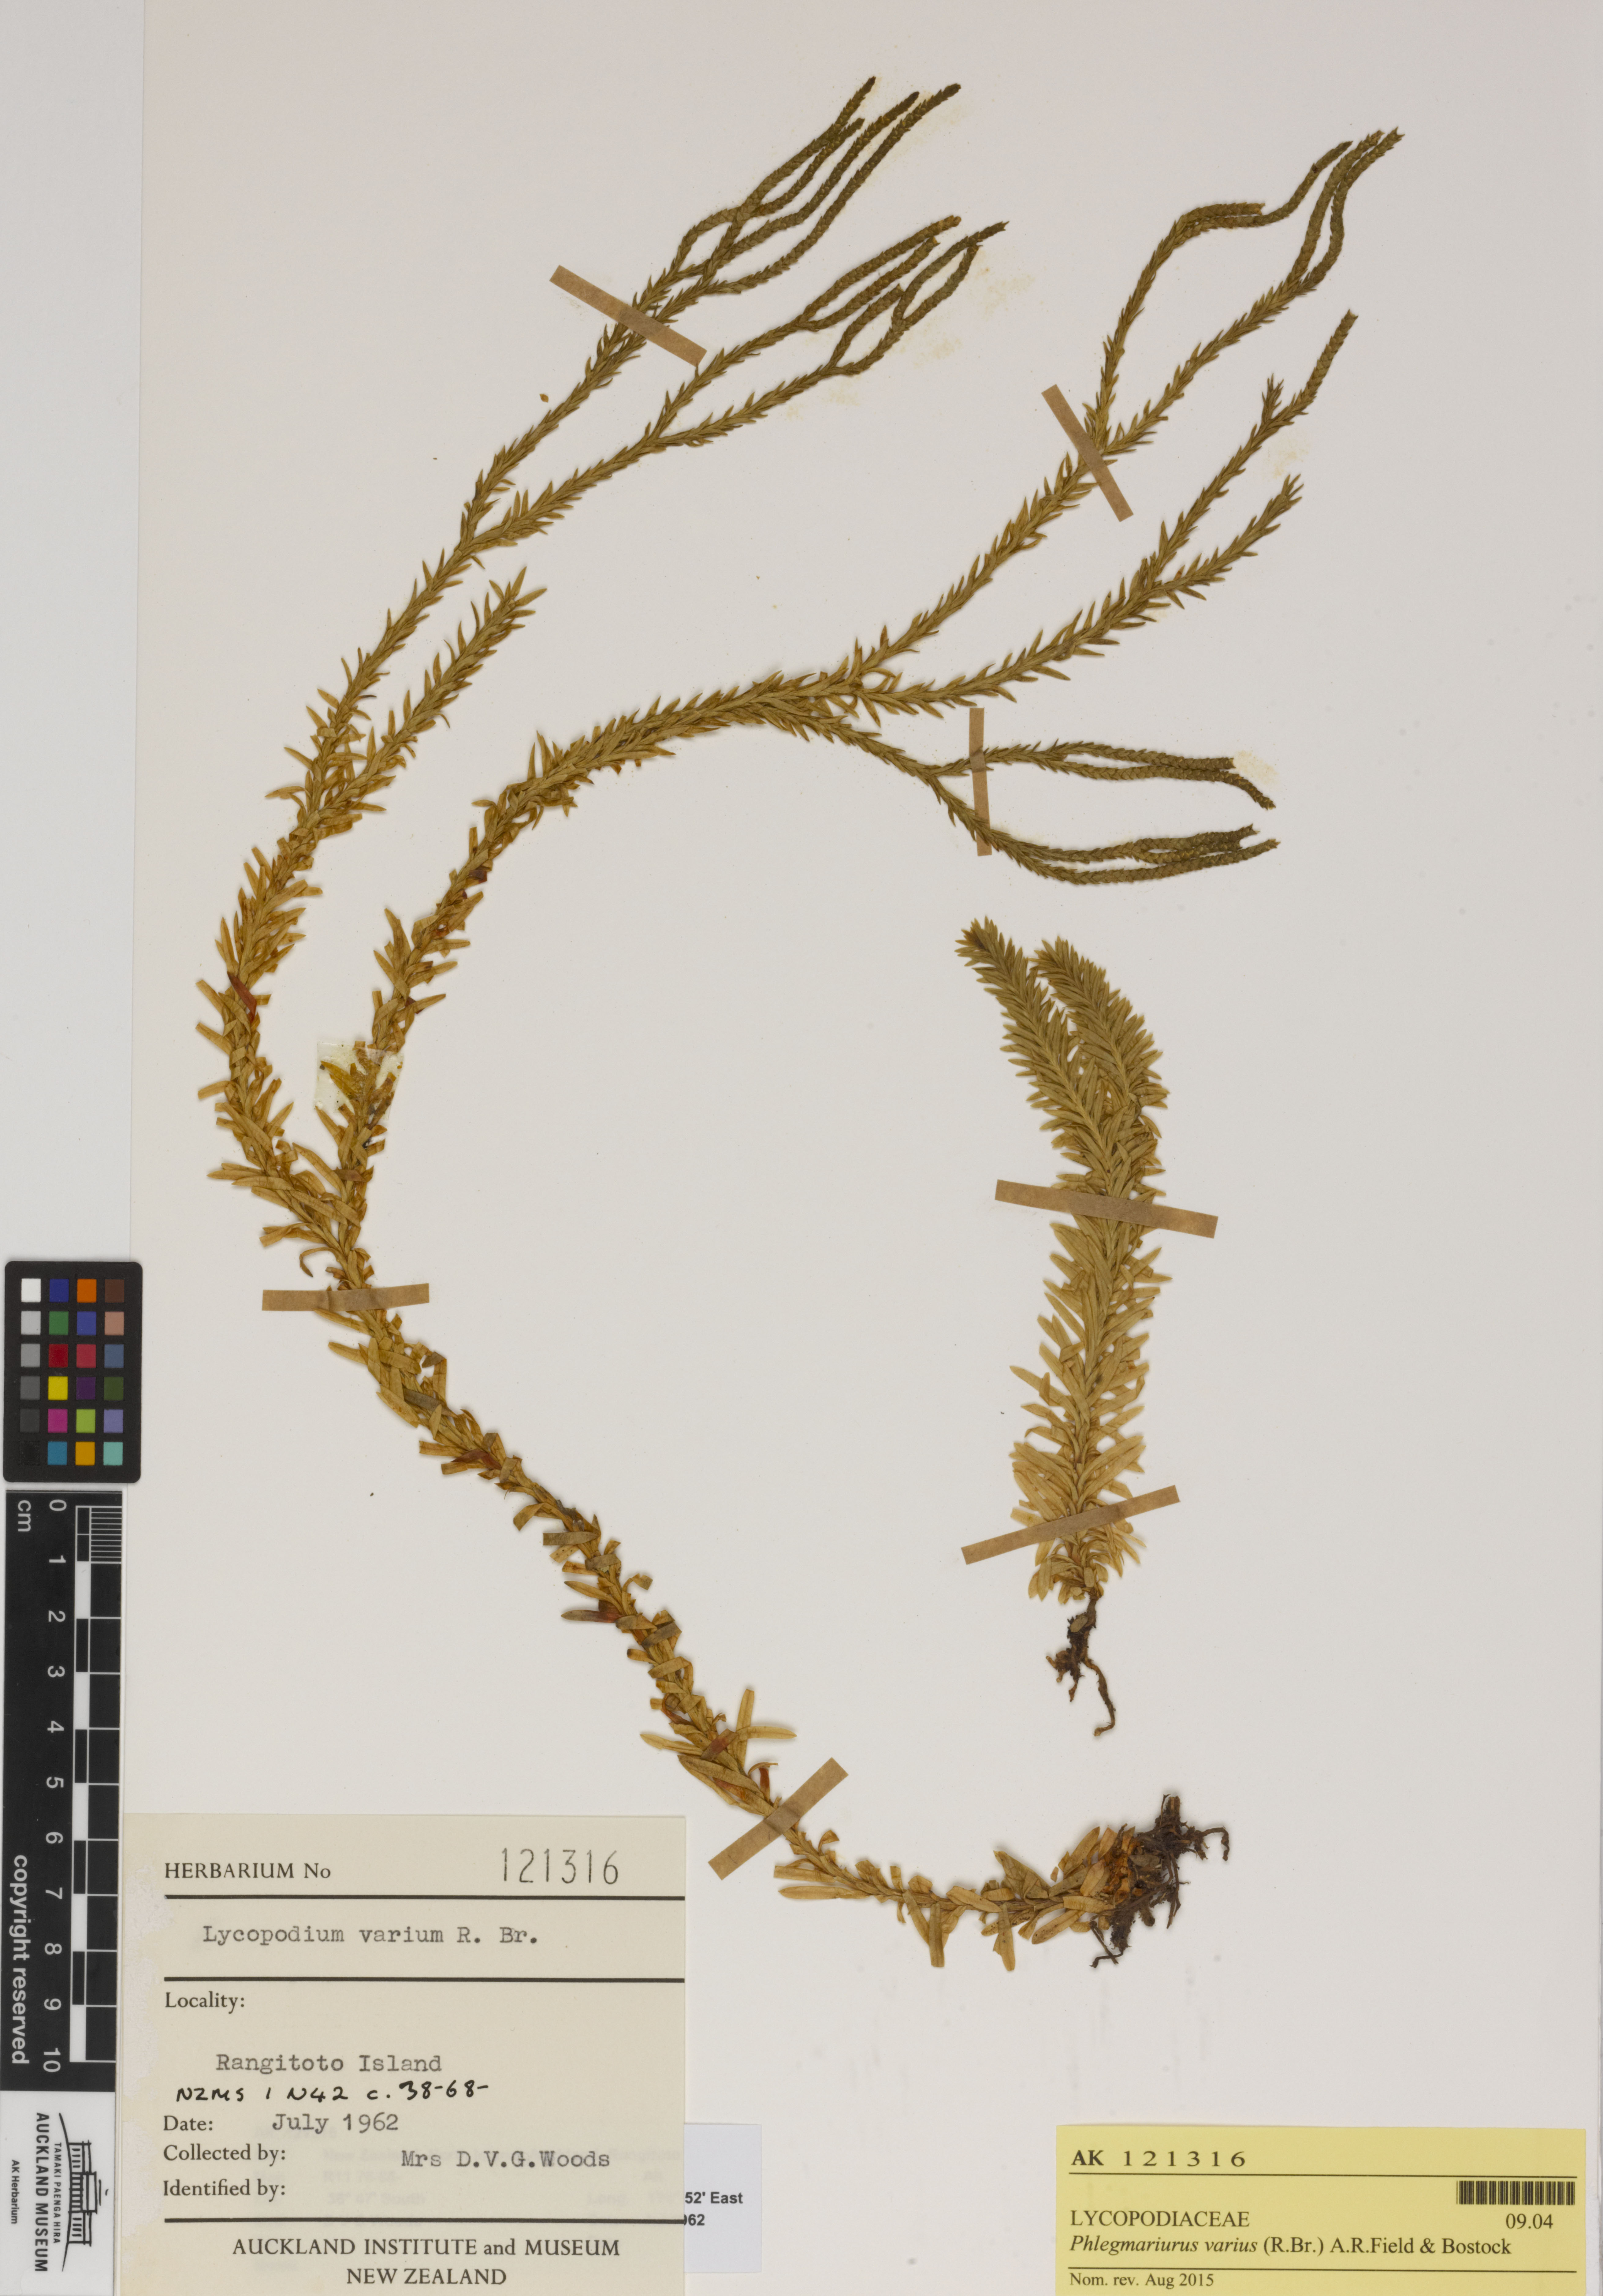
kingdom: Plantae
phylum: Tracheophyta
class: Lycopodiopsida
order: Lycopodiales
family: Lycopodiaceae
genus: Phlegmariurus
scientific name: Phlegmariurus billardierei
